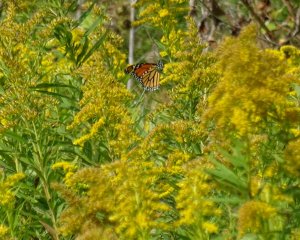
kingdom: Animalia
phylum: Arthropoda
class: Insecta
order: Lepidoptera
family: Nymphalidae
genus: Danaus
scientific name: Danaus plexippus
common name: Monarch
